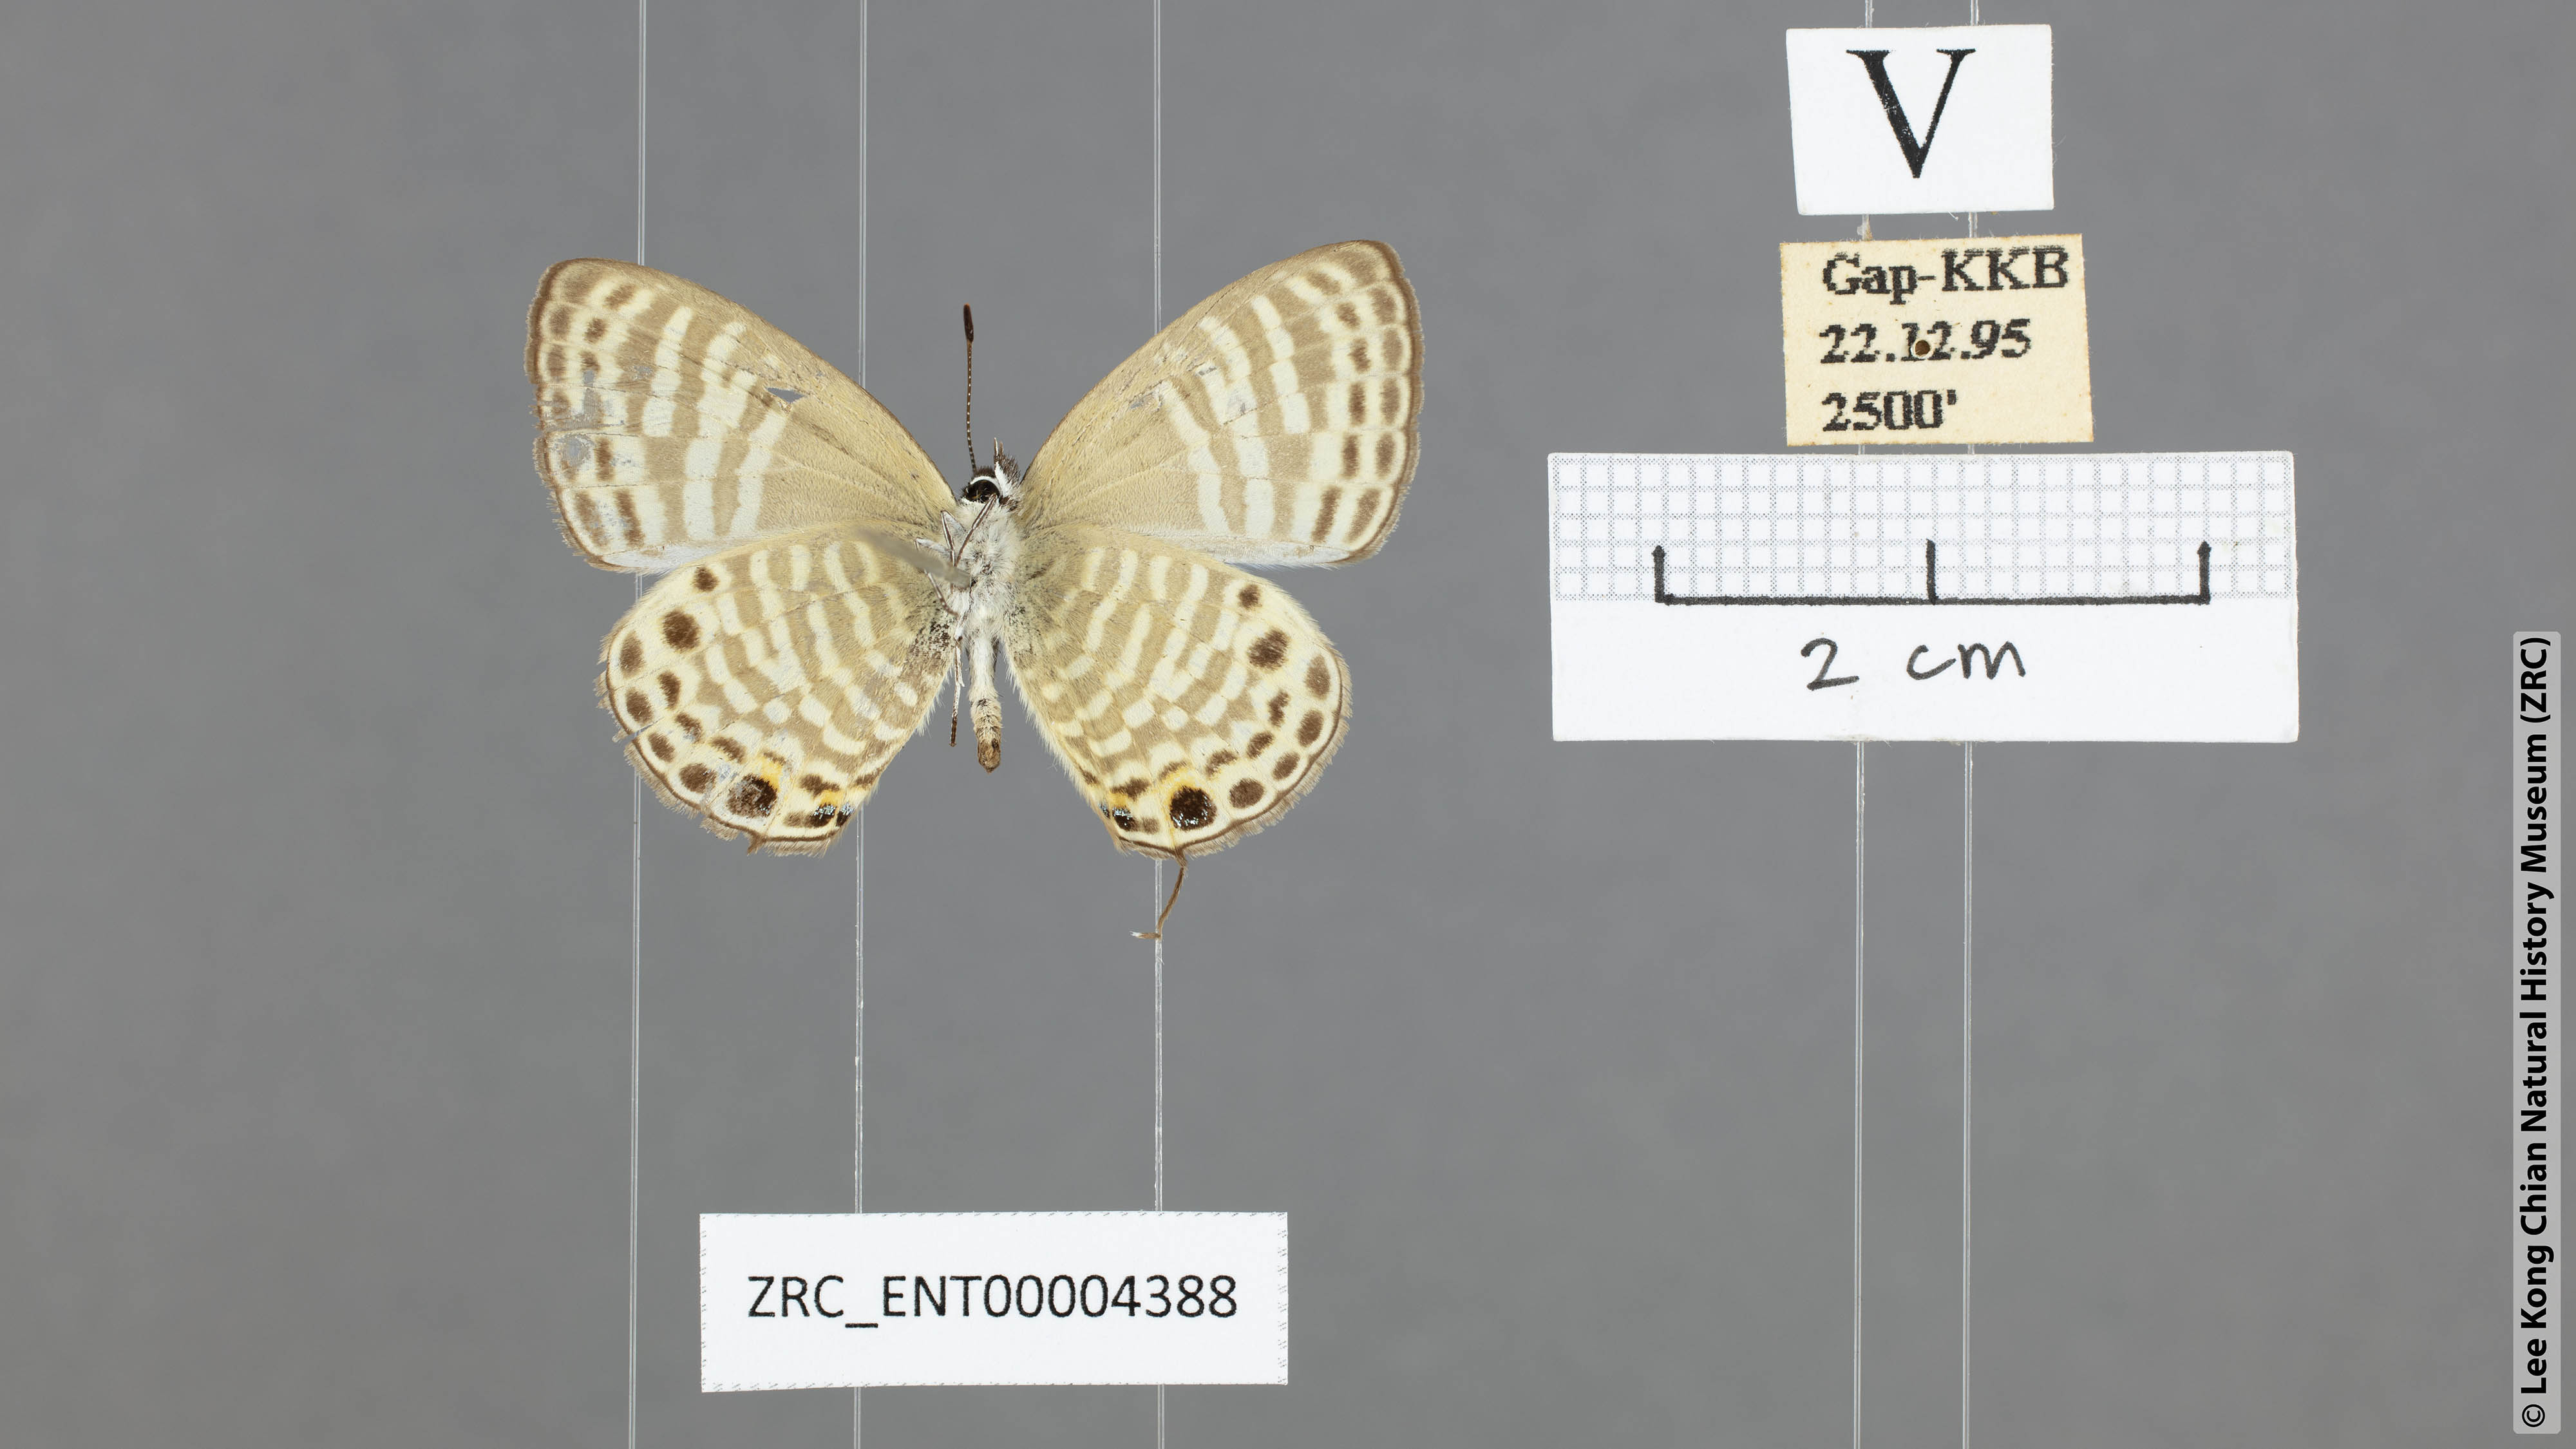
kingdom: Animalia
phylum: Arthropoda
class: Insecta
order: Lepidoptera
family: Lycaenidae
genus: Nacaduba
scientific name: Nacaduba angusta
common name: White four-line blue
